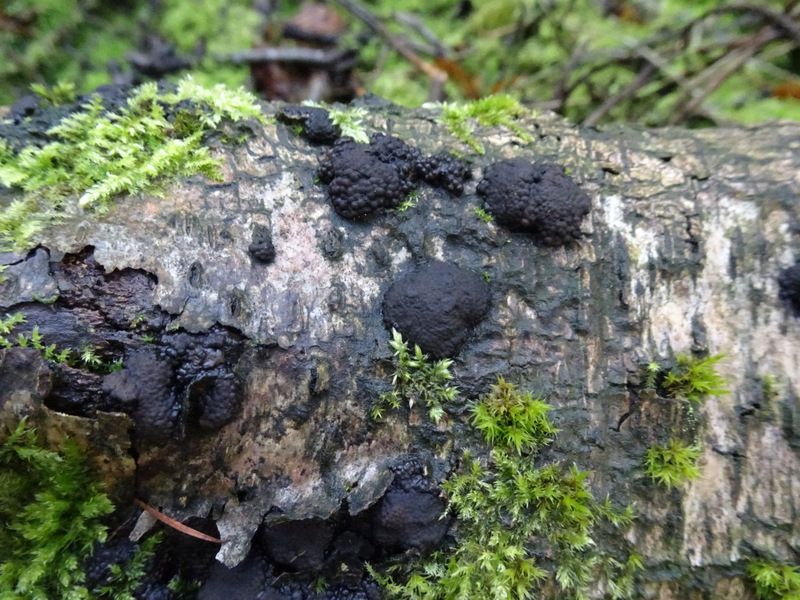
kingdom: Fungi
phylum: Ascomycota
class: Sordariomycetes
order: Xylariales
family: Hypoxylaceae
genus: Jackrogersella
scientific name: Jackrogersella multiformis
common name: foranderlig kulbær
